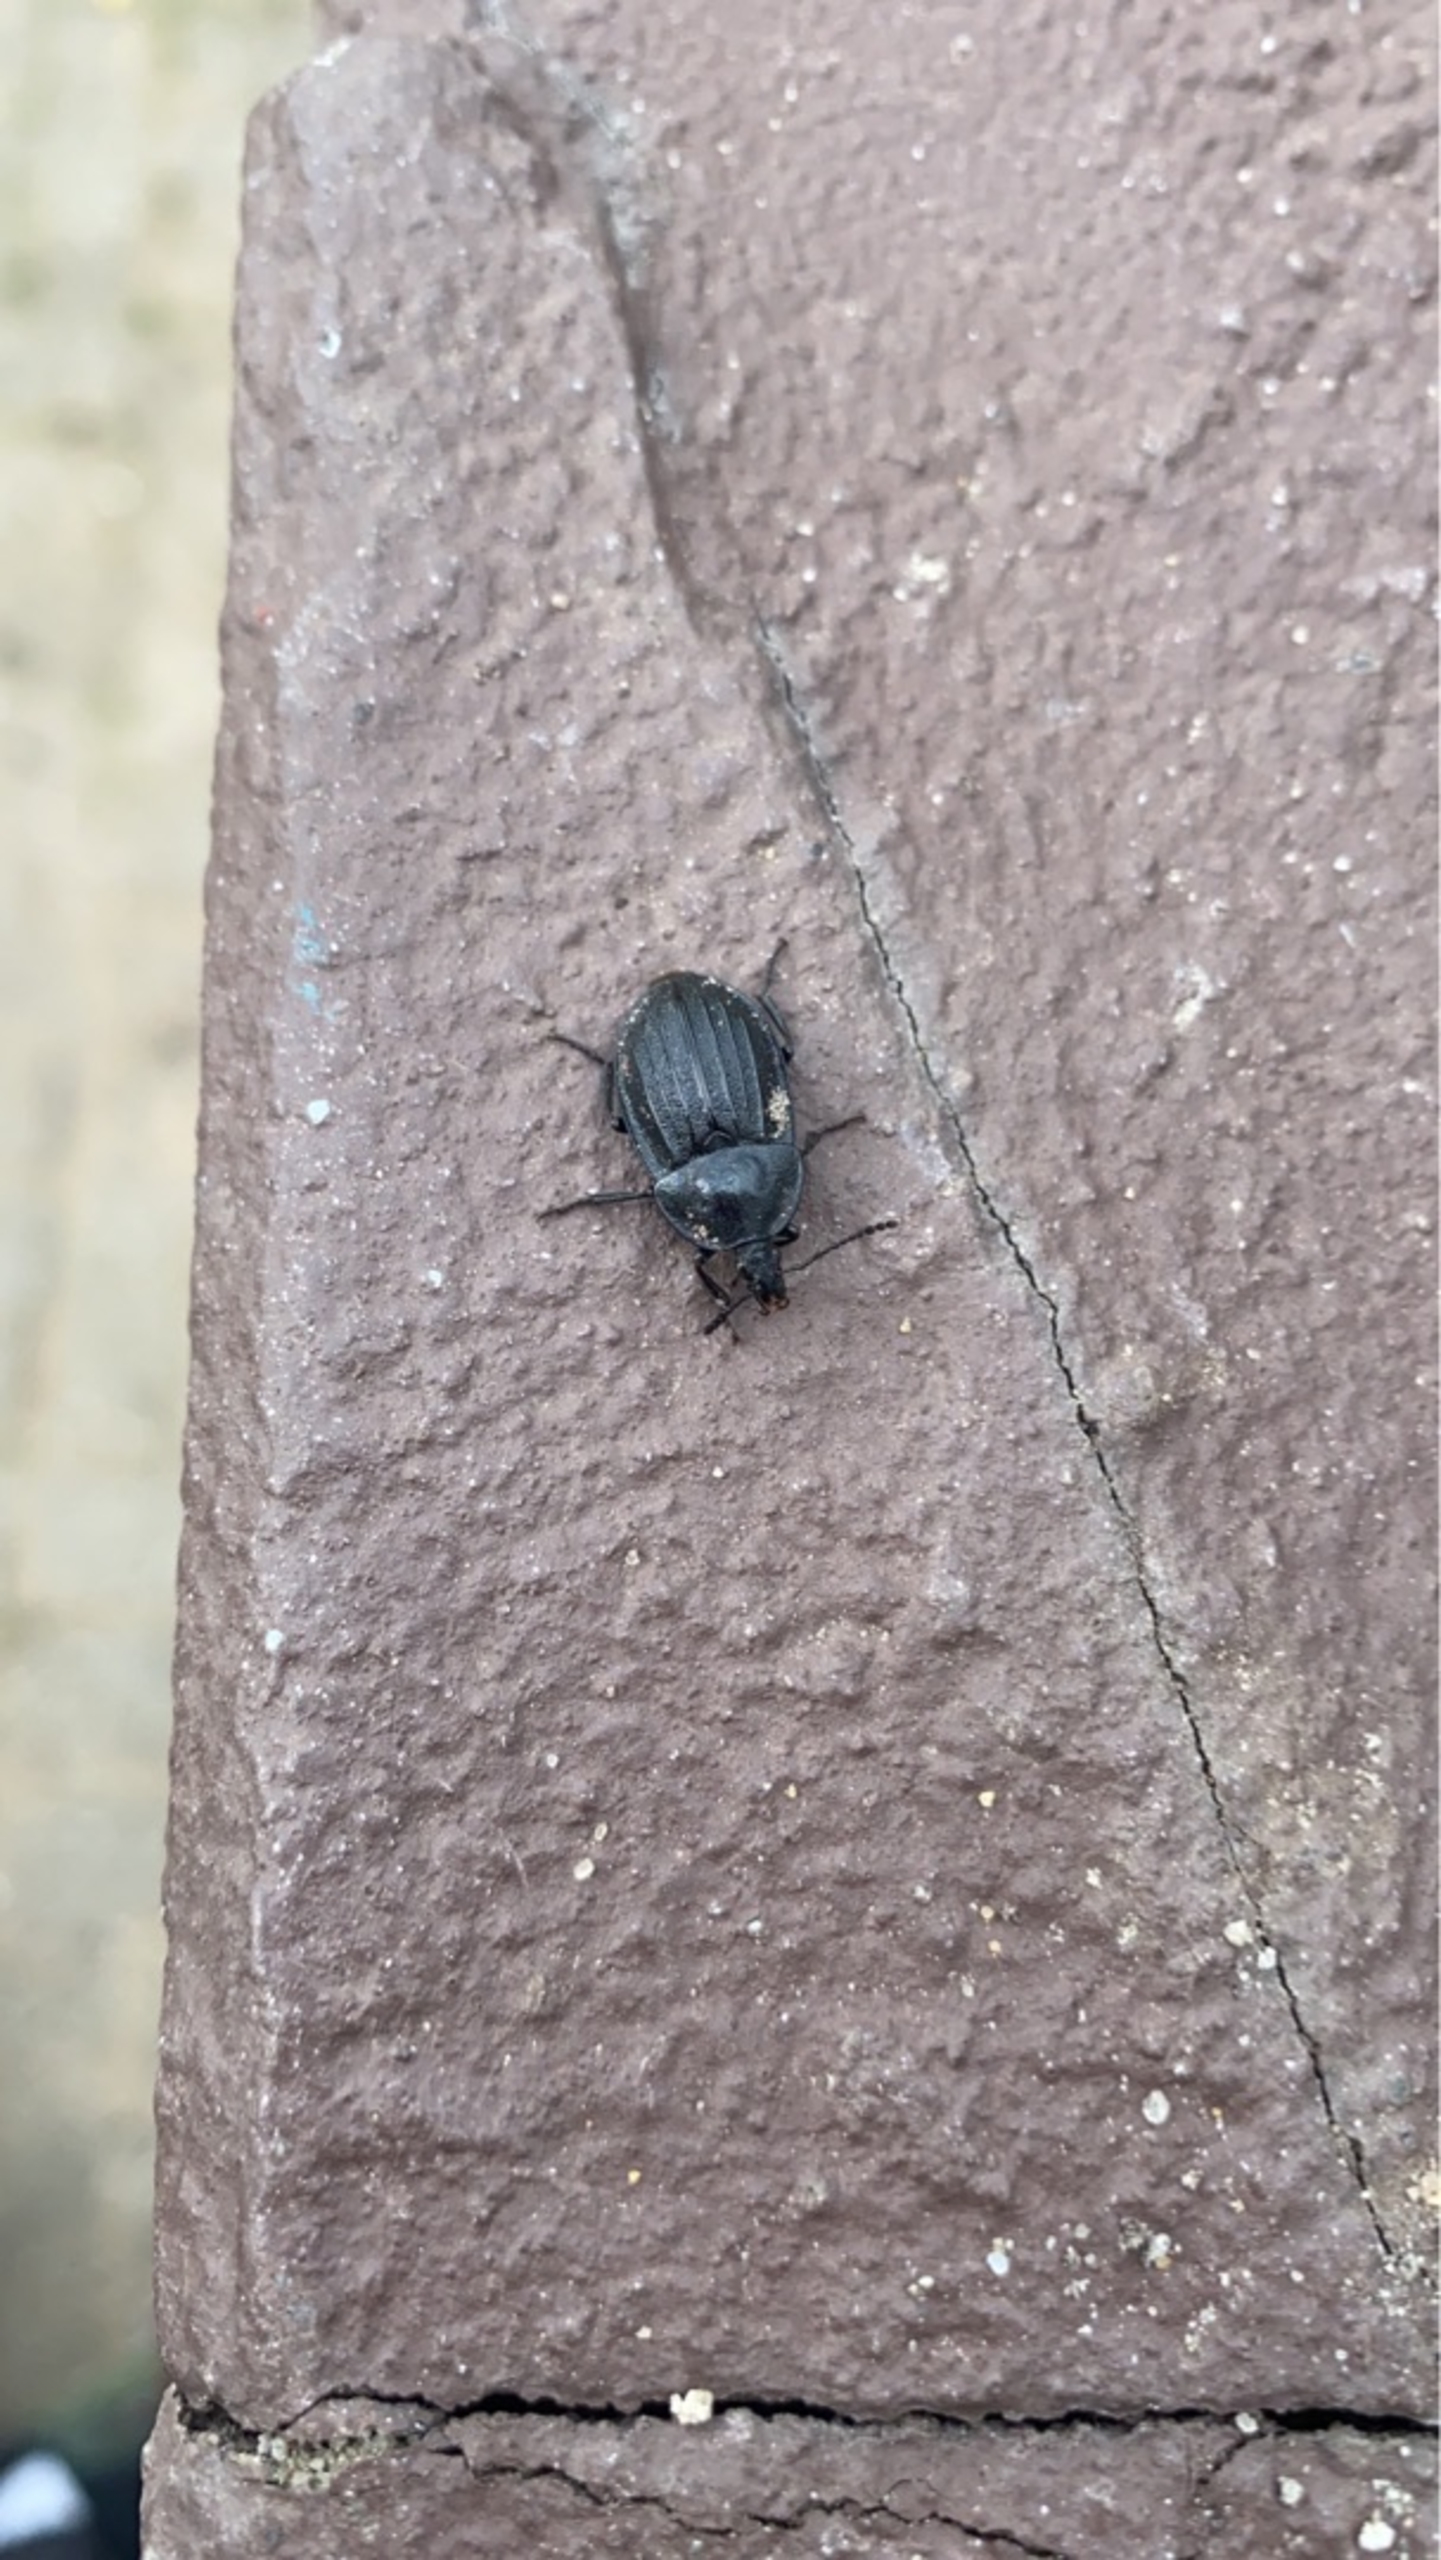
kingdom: Animalia
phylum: Arthropoda
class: Insecta
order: Coleoptera
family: Staphylinidae
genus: Silpha
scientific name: Silpha atrata
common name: Snegleådselbille
